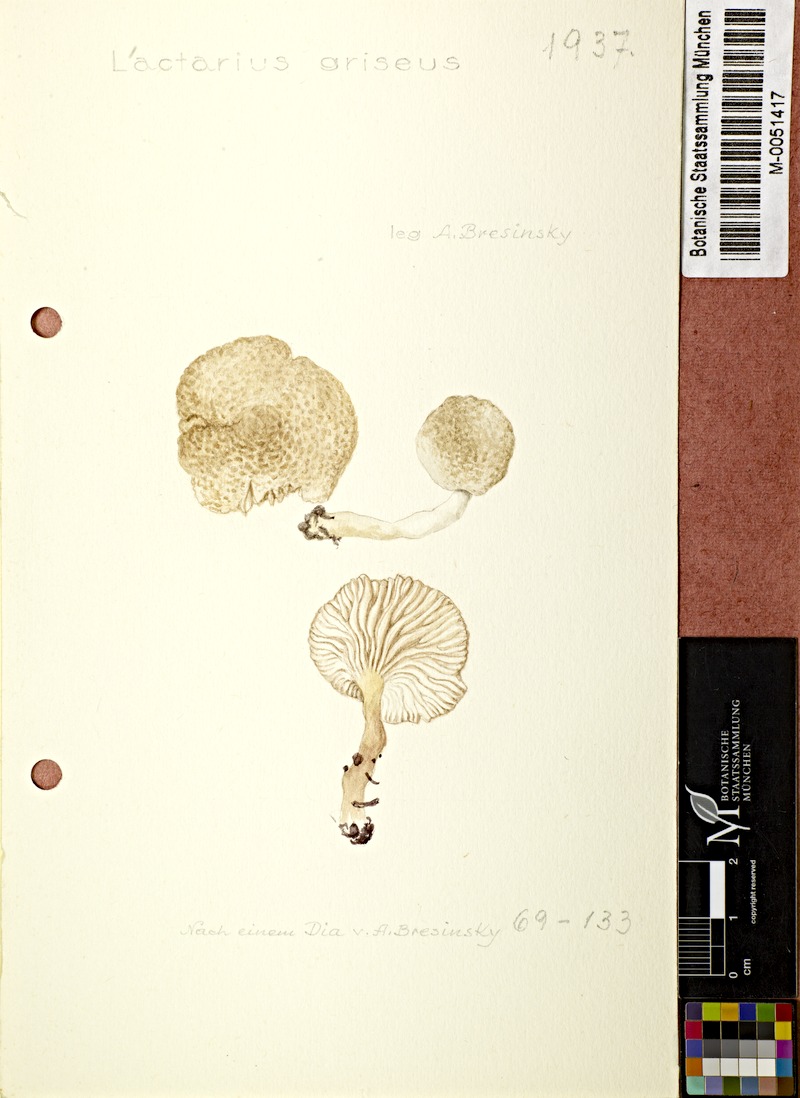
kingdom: Fungi
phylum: Basidiomycota
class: Agaricomycetes
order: Russulales
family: Russulaceae
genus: Lactarius
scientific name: Lactarius griseus
